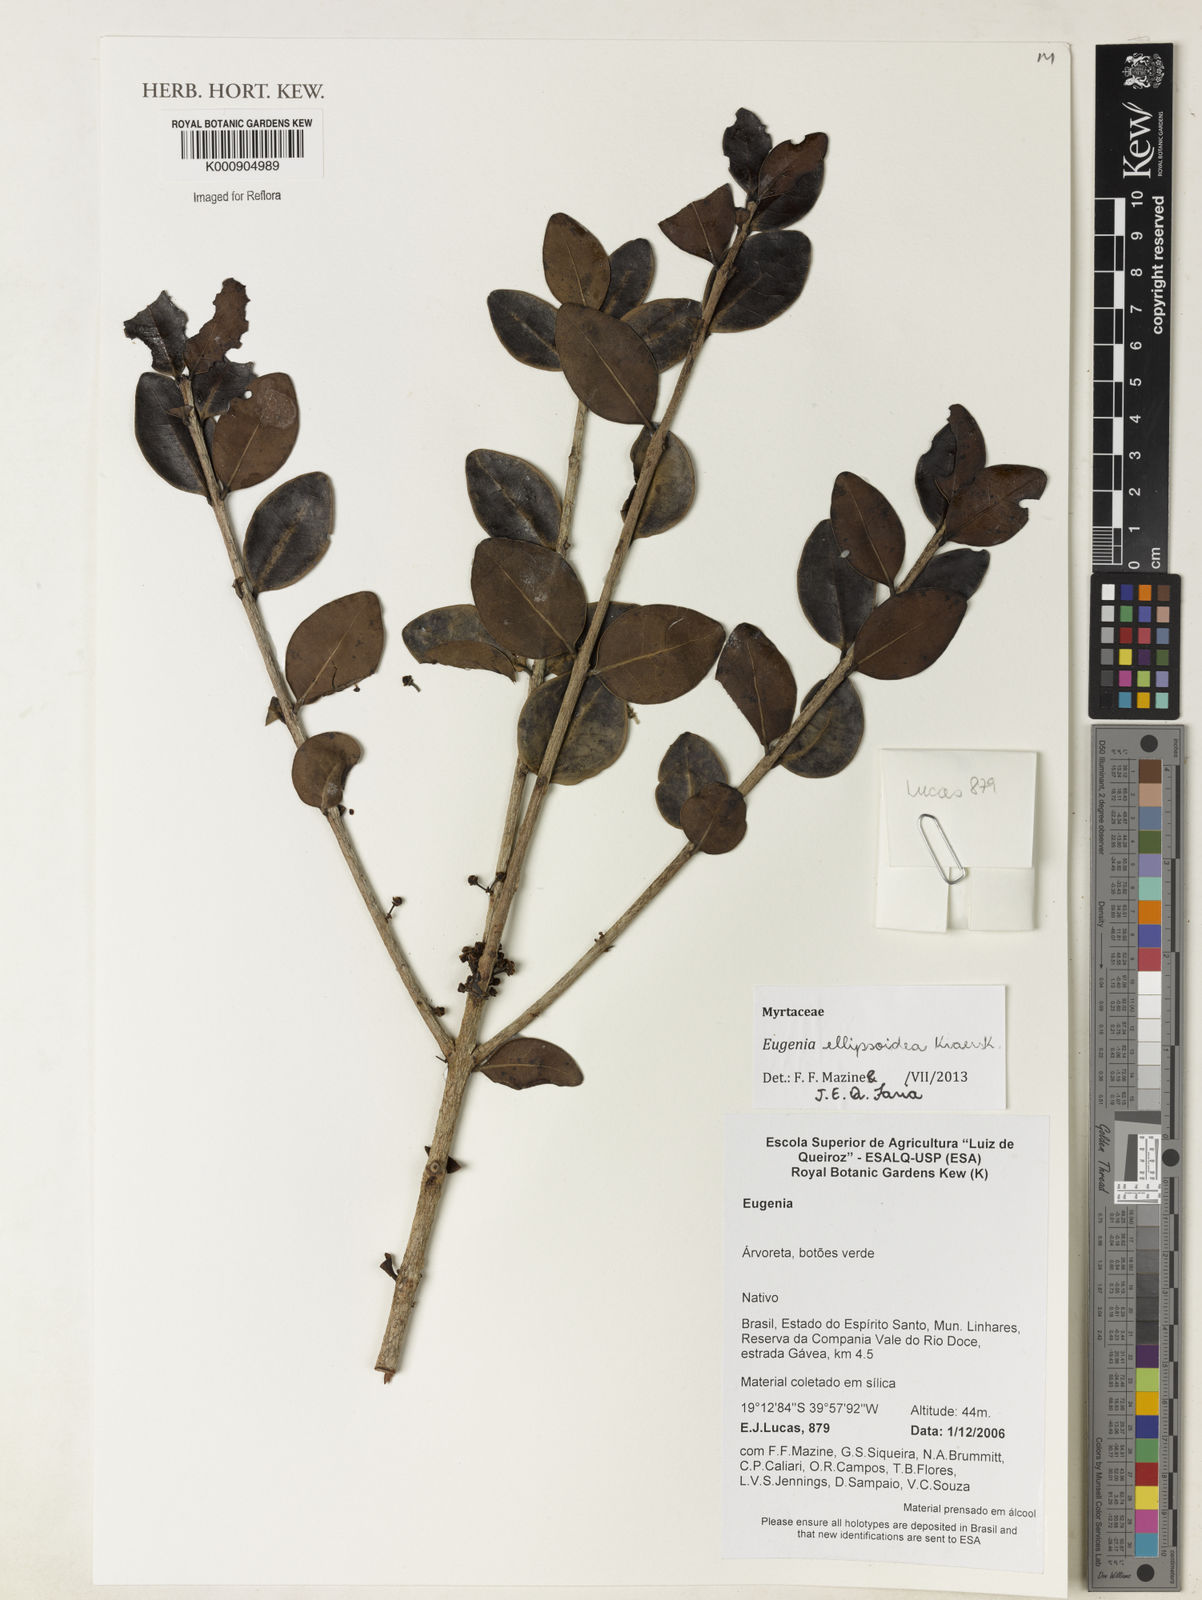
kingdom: Plantae
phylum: Tracheophyta
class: Magnoliopsida
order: Myrtales
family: Myrtaceae
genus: Eugenia
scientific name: Eugenia ellipsoidea
